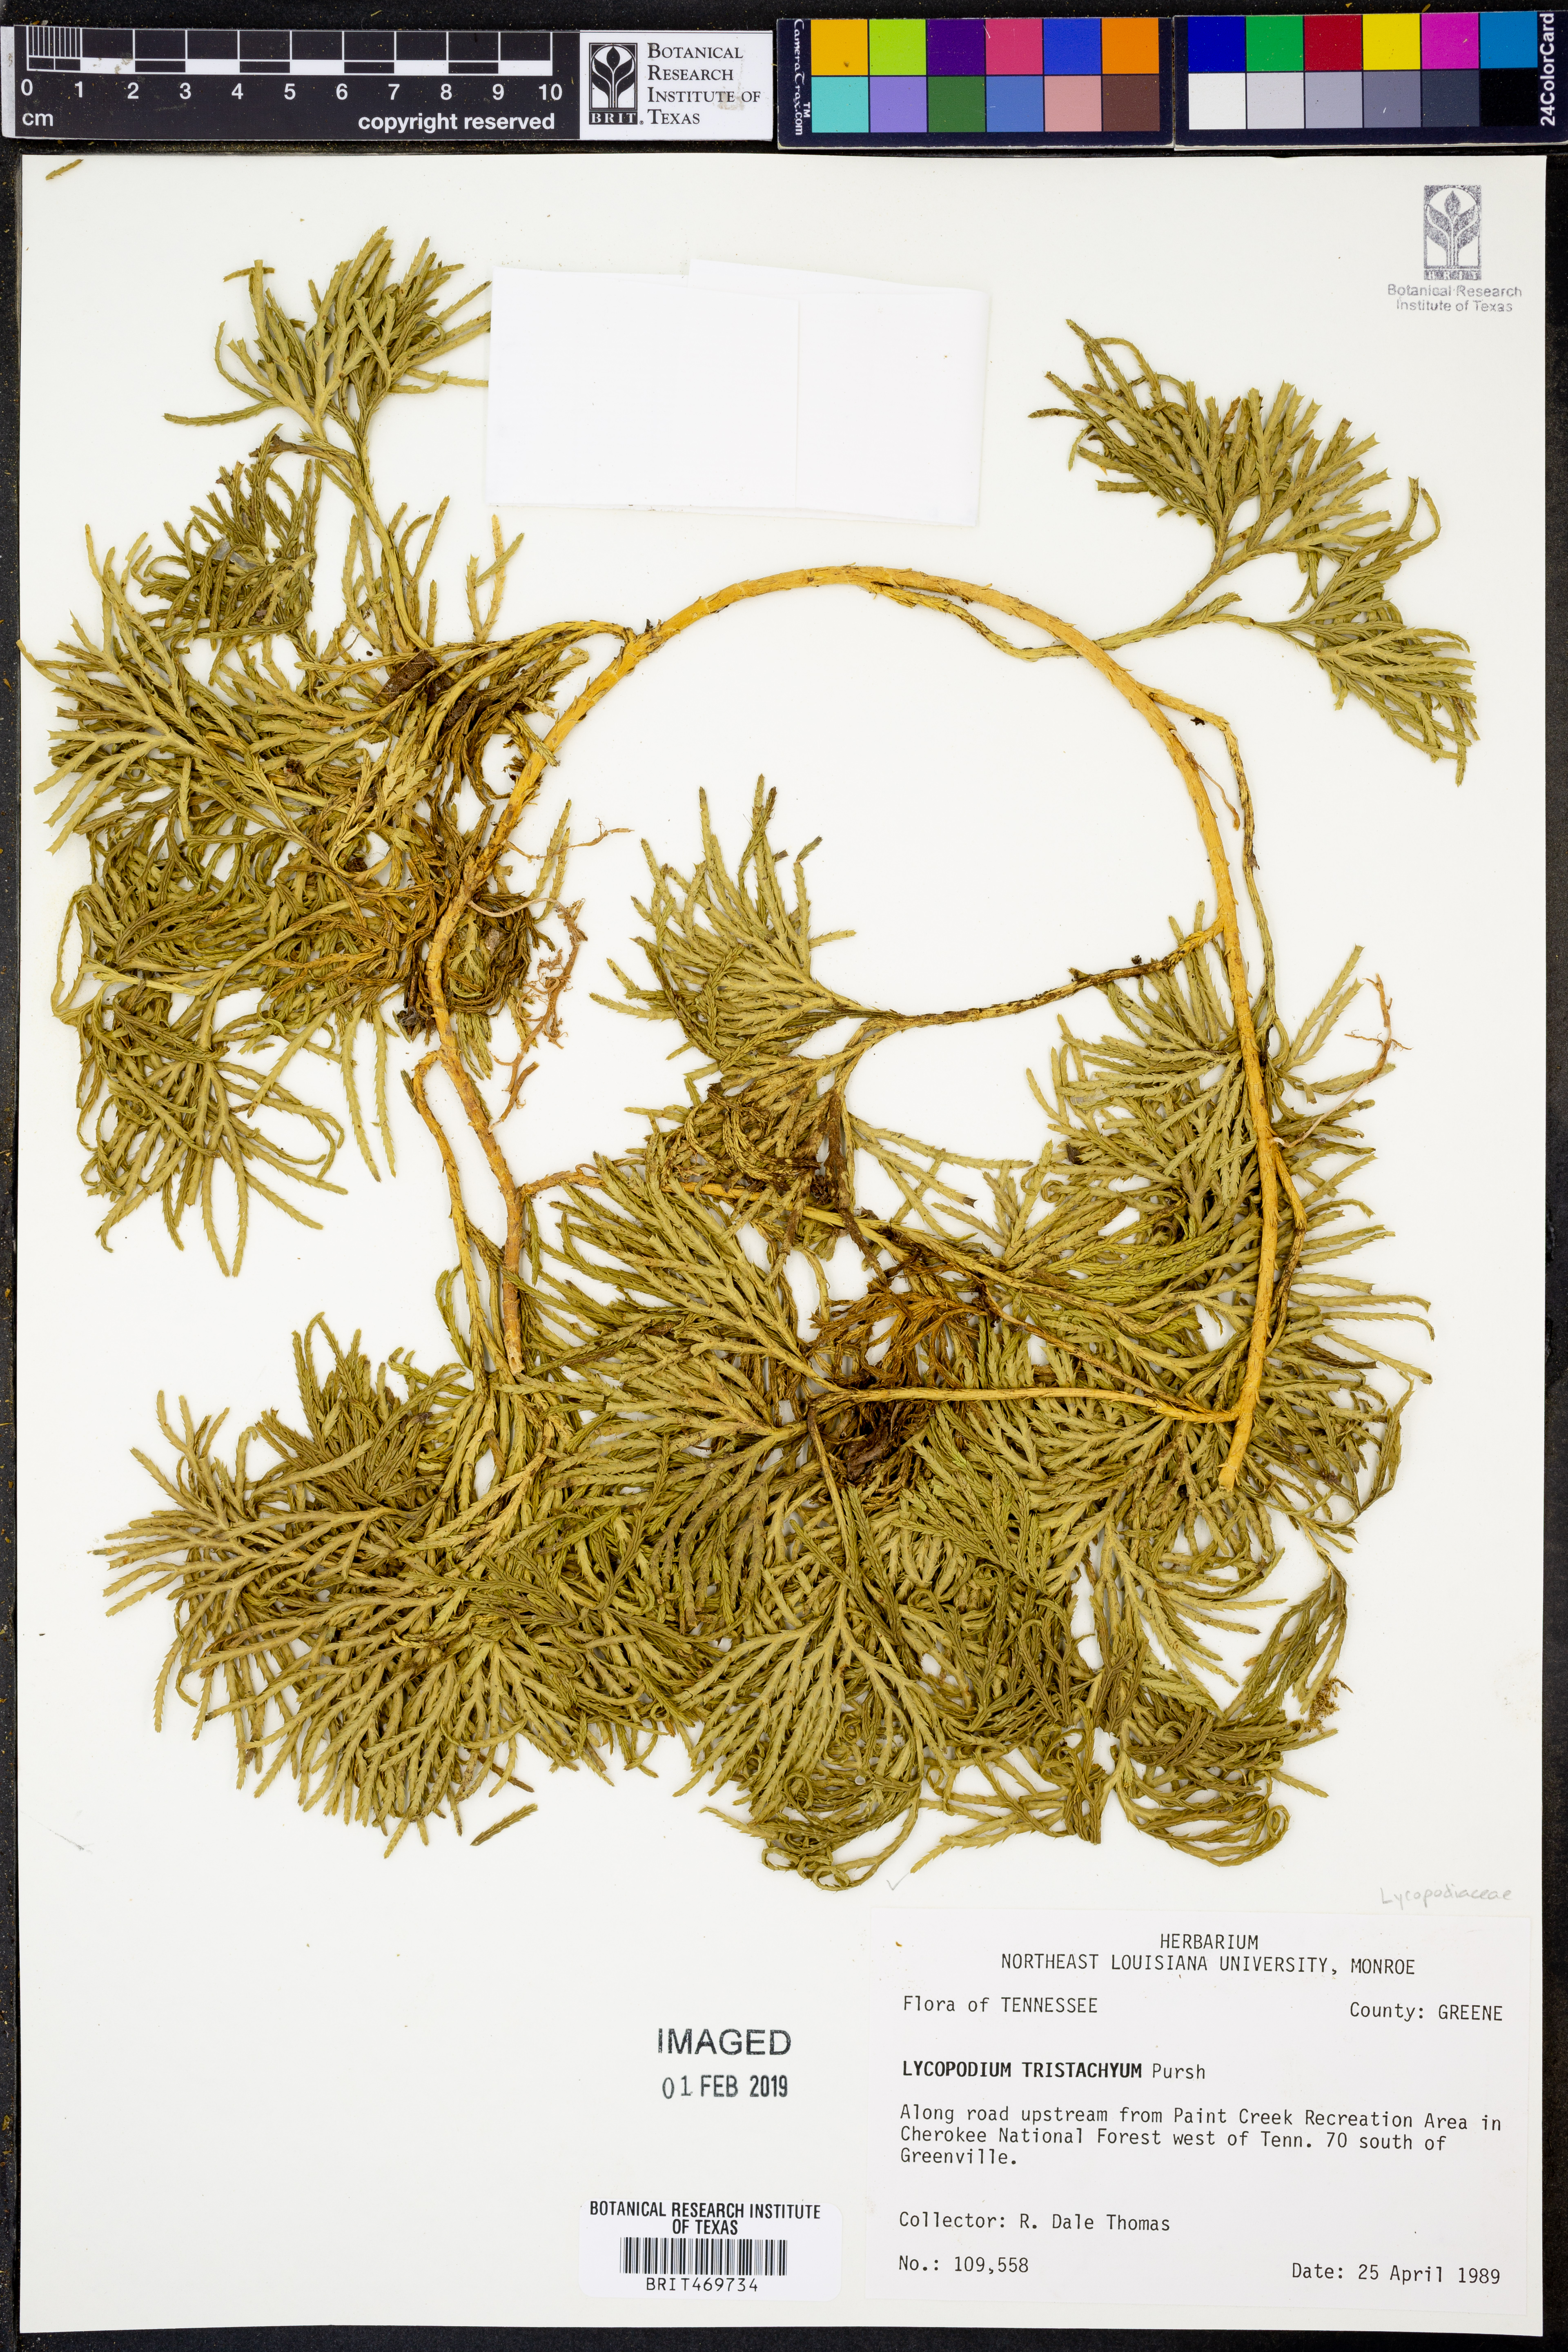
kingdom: Plantae
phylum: Tracheophyta
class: Lycopodiopsida
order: Lycopodiales
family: Lycopodiaceae
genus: Diphasiastrum
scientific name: Diphasiastrum tristachyum
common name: Blue ground-cedar
